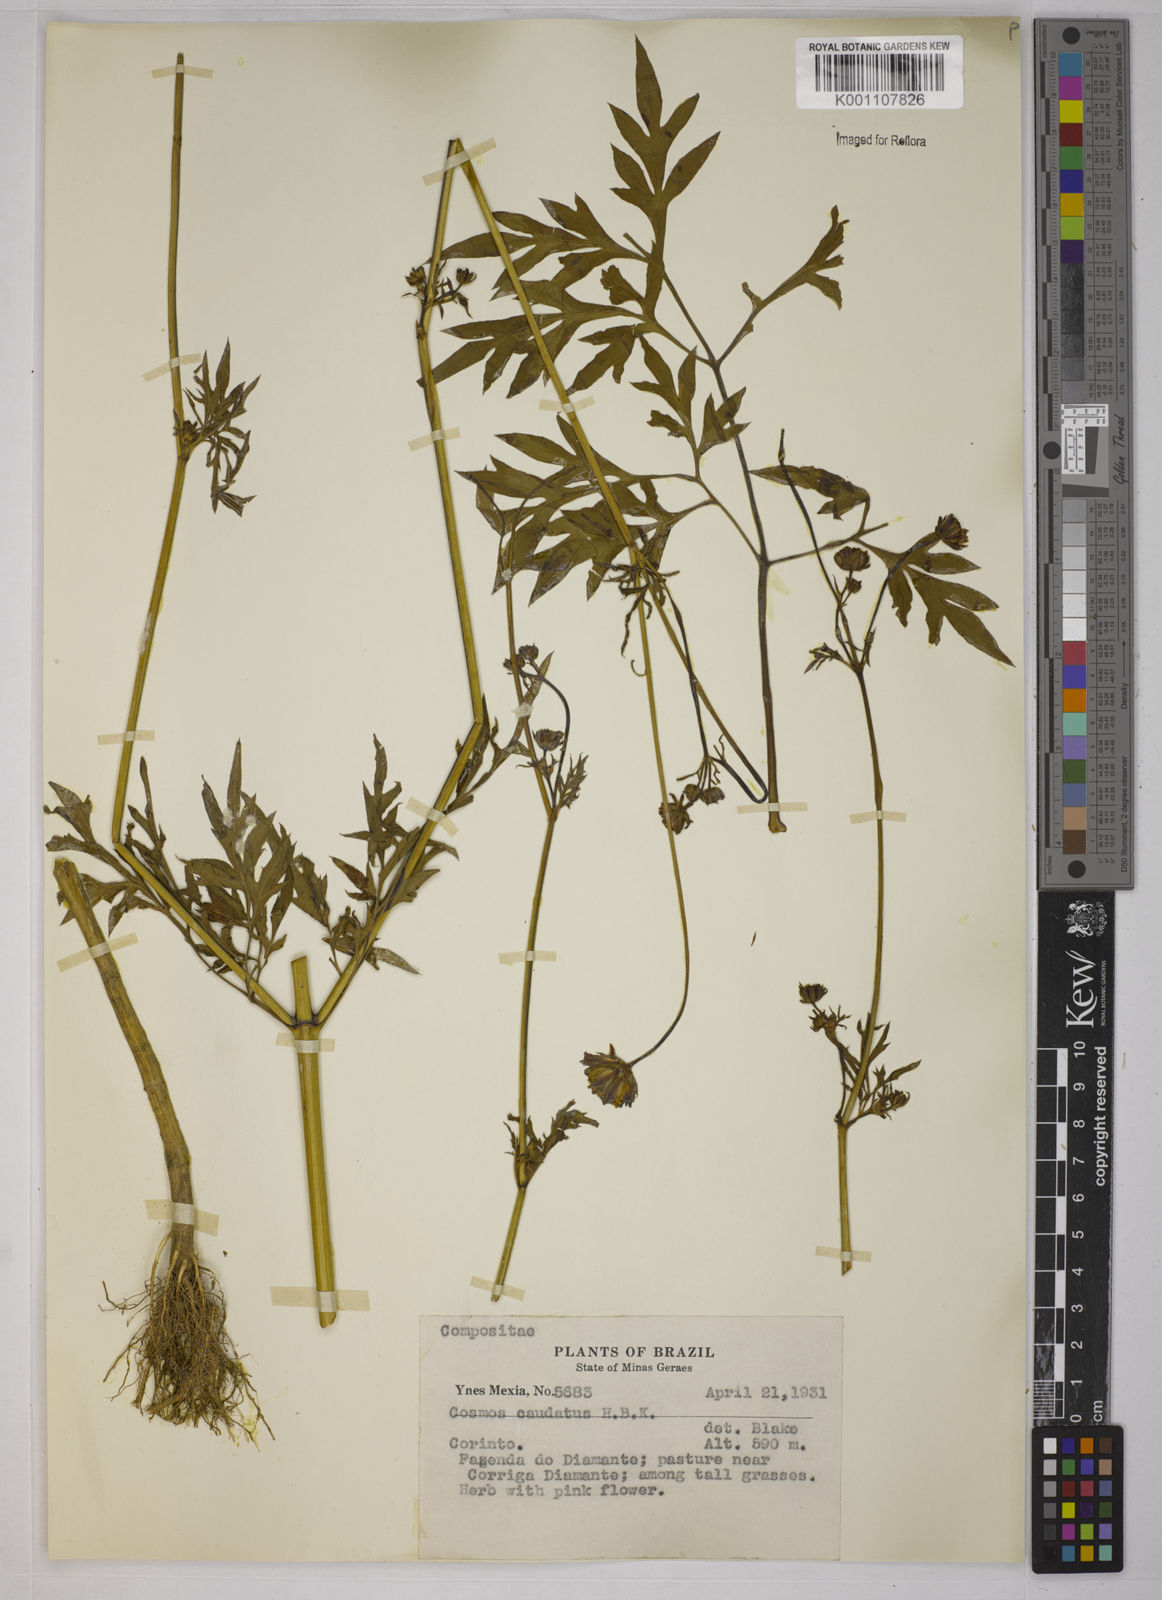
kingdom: Plantae
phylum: Tracheophyta
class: Magnoliopsida
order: Asterales
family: Asteraceae
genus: Cosmos
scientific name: Cosmos caudatus
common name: Wild cosmos
